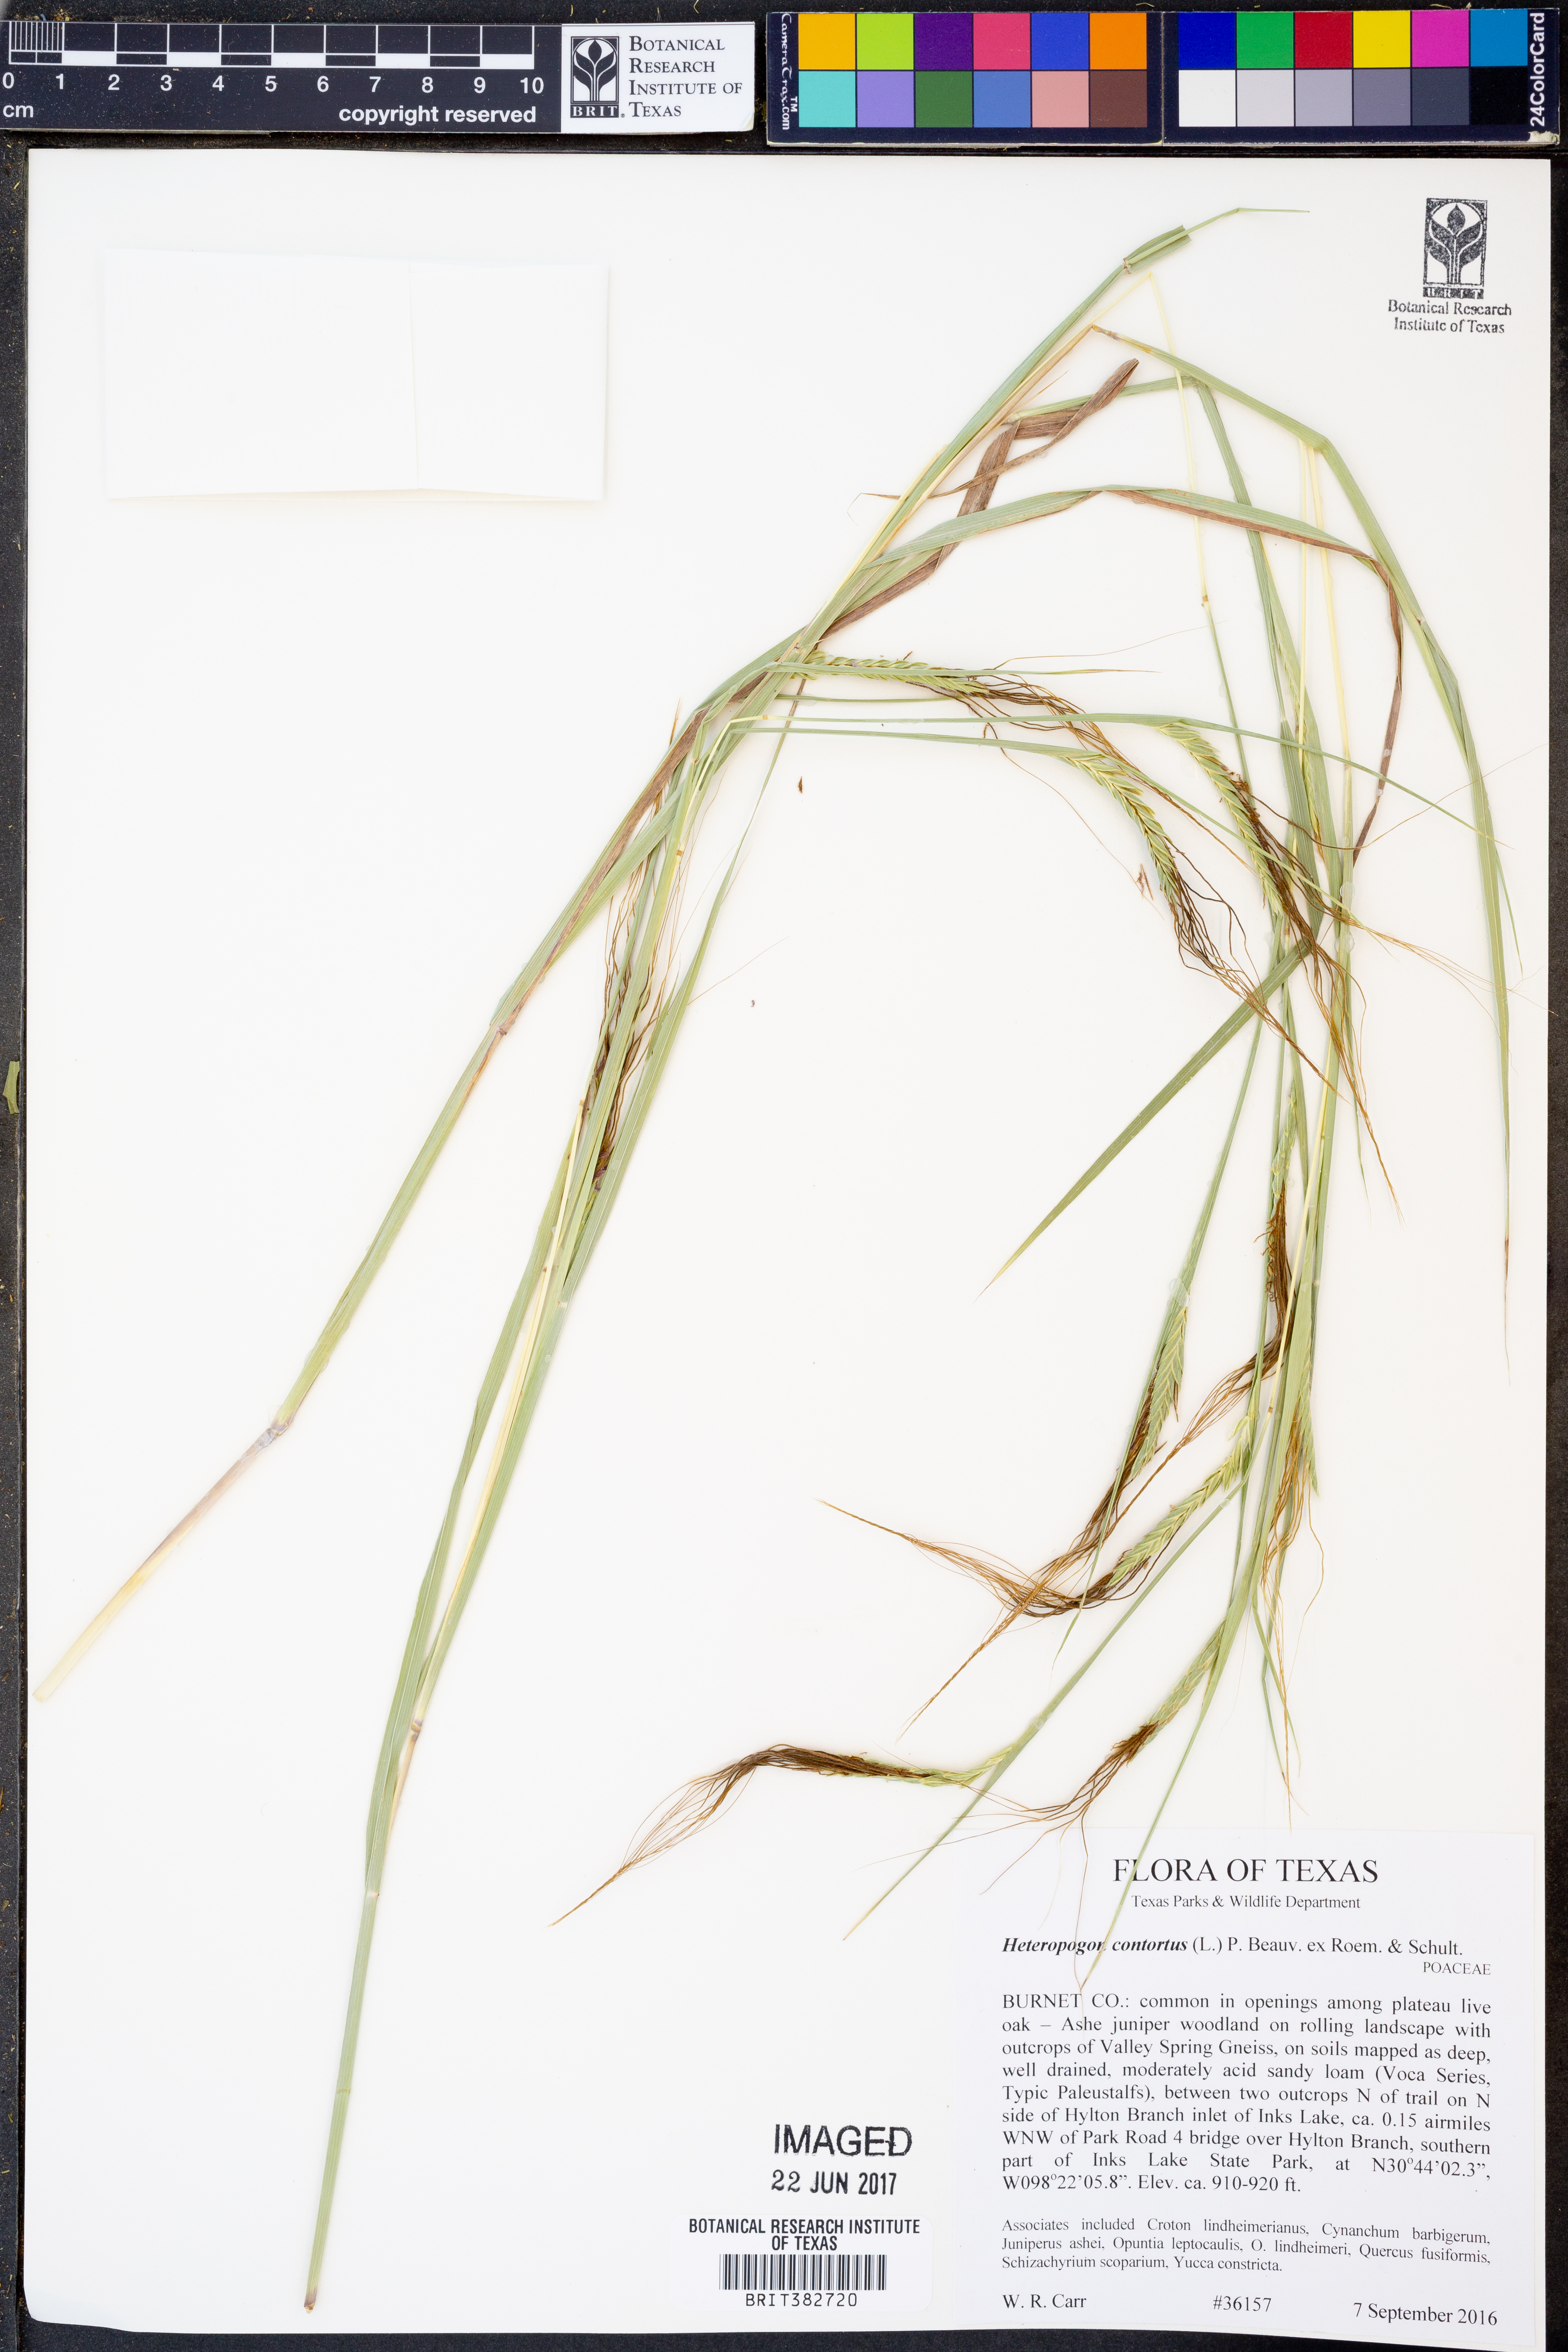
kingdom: Plantae
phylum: Tracheophyta
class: Liliopsida
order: Poales
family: Poaceae
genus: Heteropogon
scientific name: Heteropogon contortus
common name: Tanglehead
